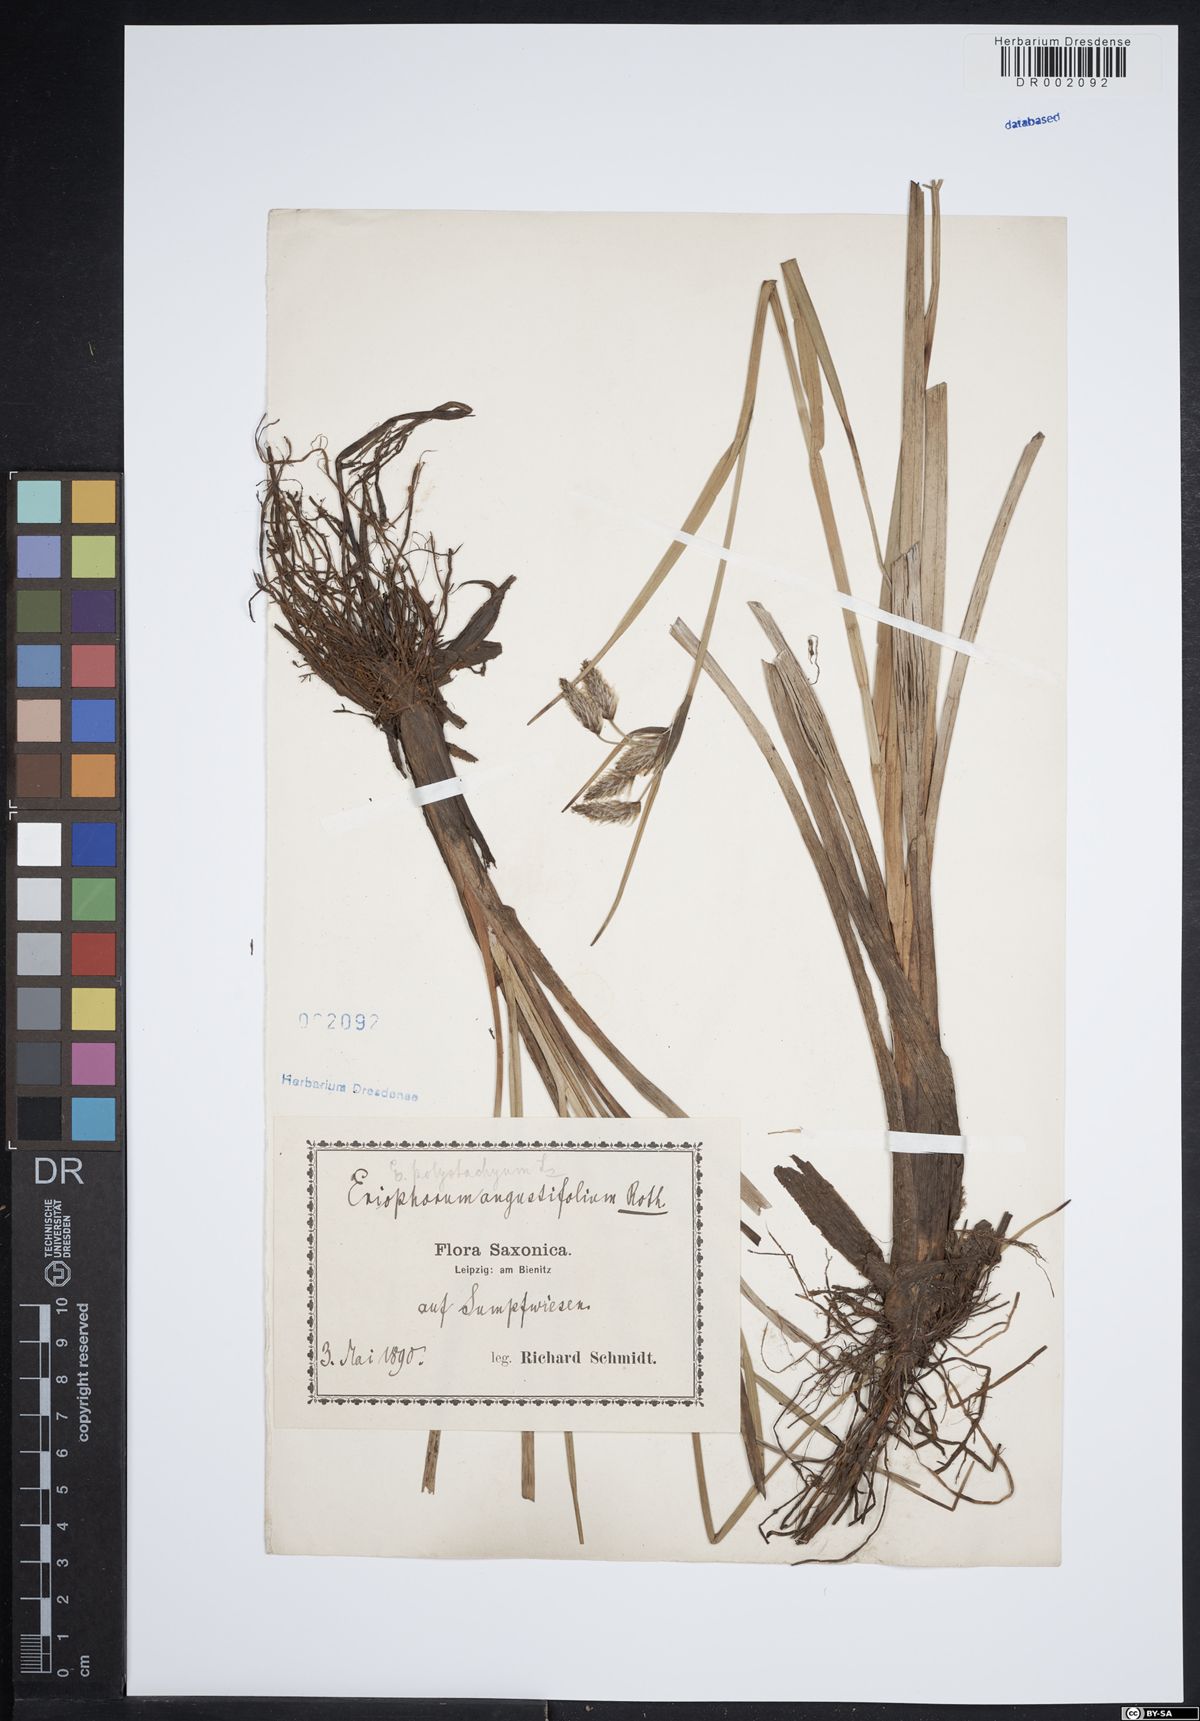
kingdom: Plantae
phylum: Tracheophyta
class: Liliopsida
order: Poales
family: Cyperaceae
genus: Eriophorum
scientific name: Eriophorum angustifolium
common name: Common cottongrass
